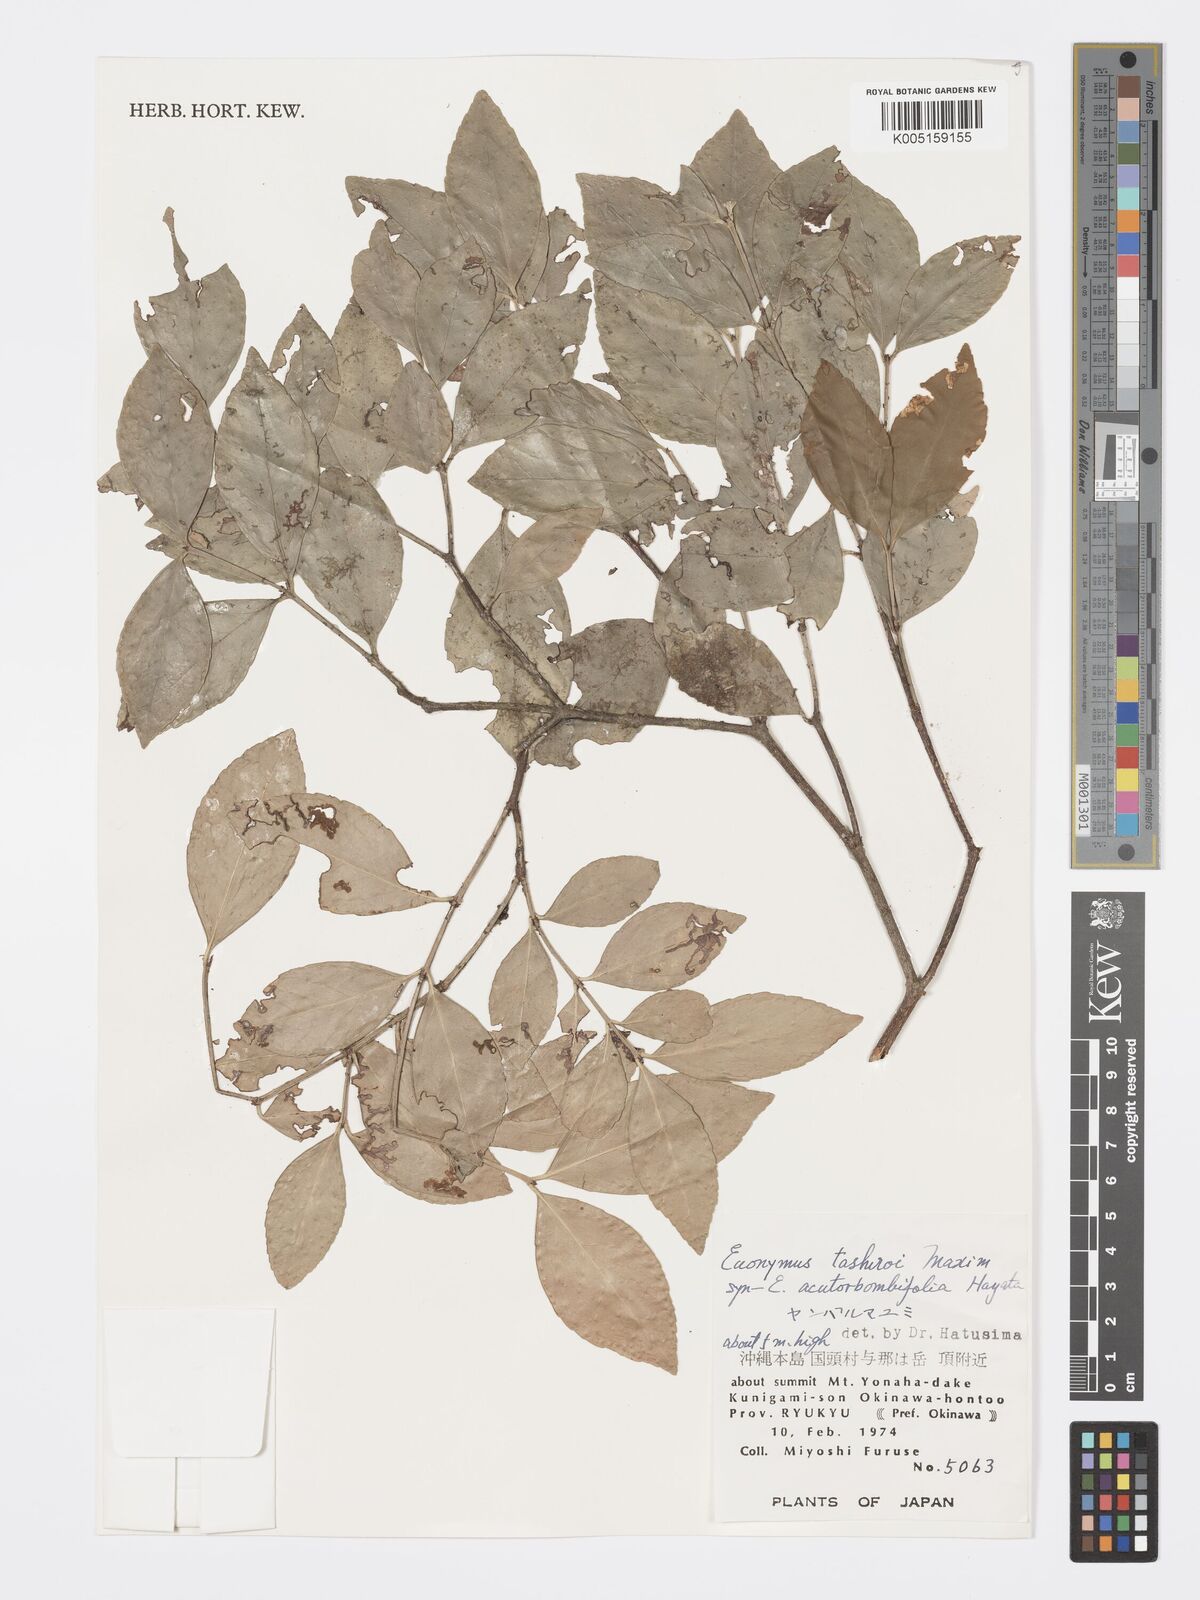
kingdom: Plantae
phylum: Tracheophyta
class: Magnoliopsida
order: Celastrales
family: Celastraceae
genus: Euonymus
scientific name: Euonymus tashiroi
